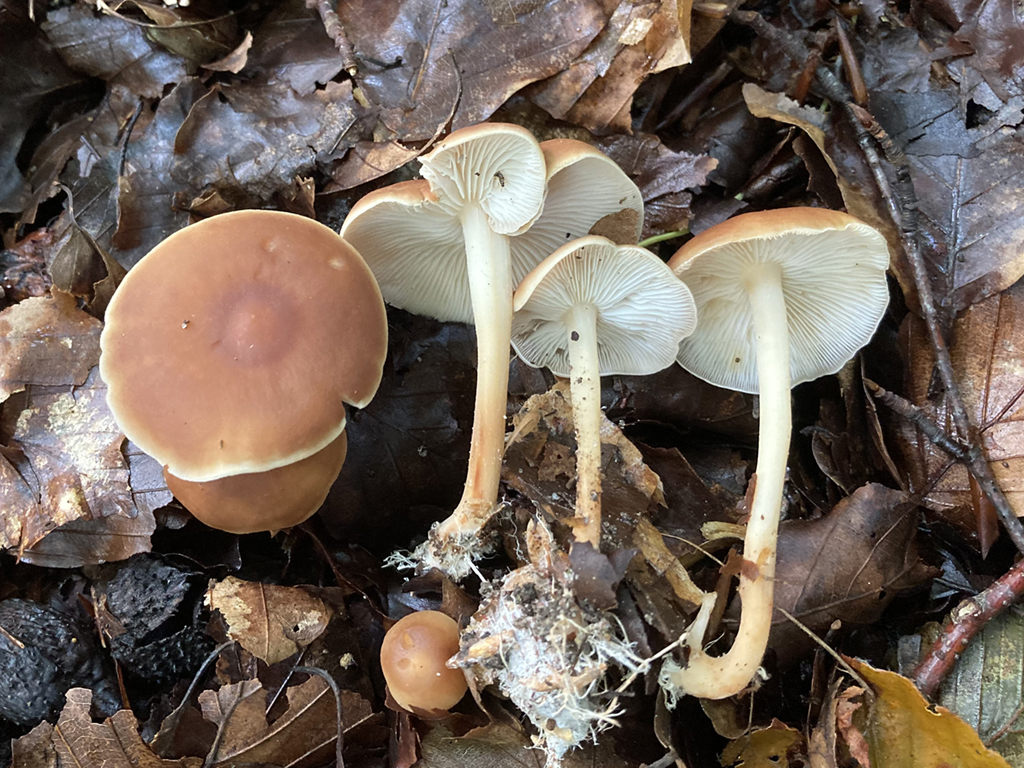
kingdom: Fungi
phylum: Basidiomycota
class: Agaricomycetes
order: Agaricales
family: Omphalotaceae
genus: Gymnopus
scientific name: Gymnopus ocior
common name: mørk fladhat
